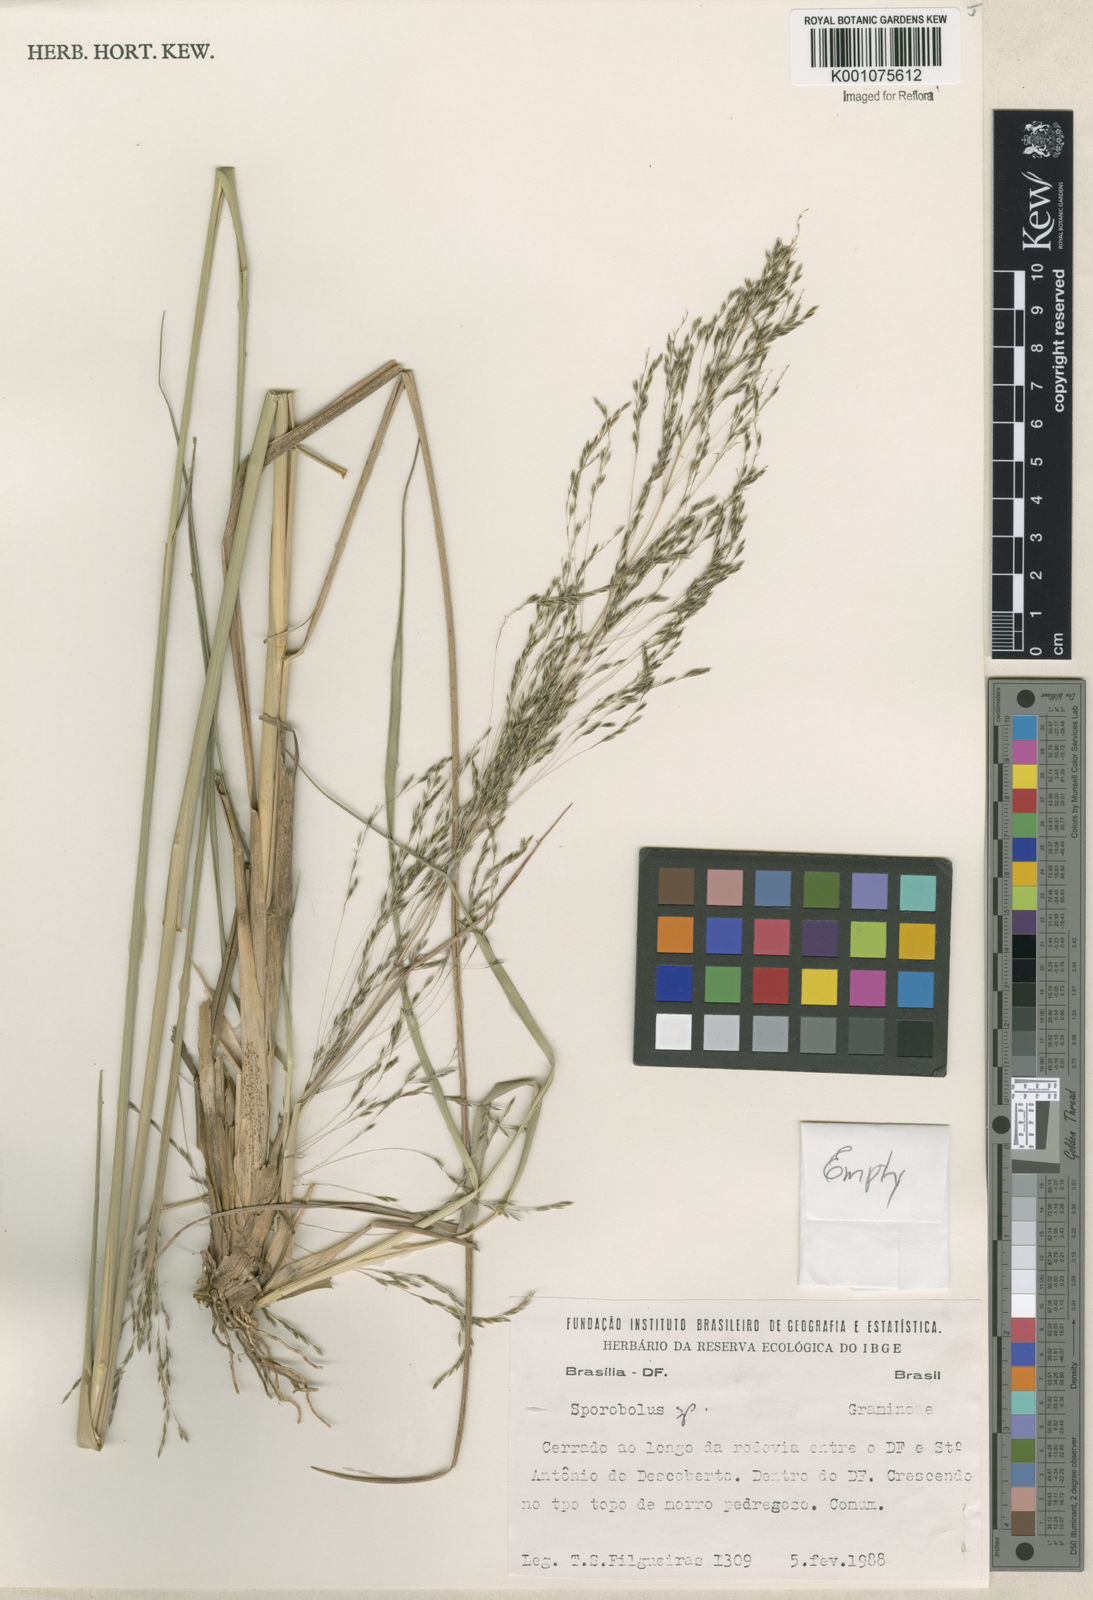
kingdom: Plantae
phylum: Tracheophyta
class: Liliopsida
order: Poales
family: Poaceae
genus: Sporobolus
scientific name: Sporobolus
